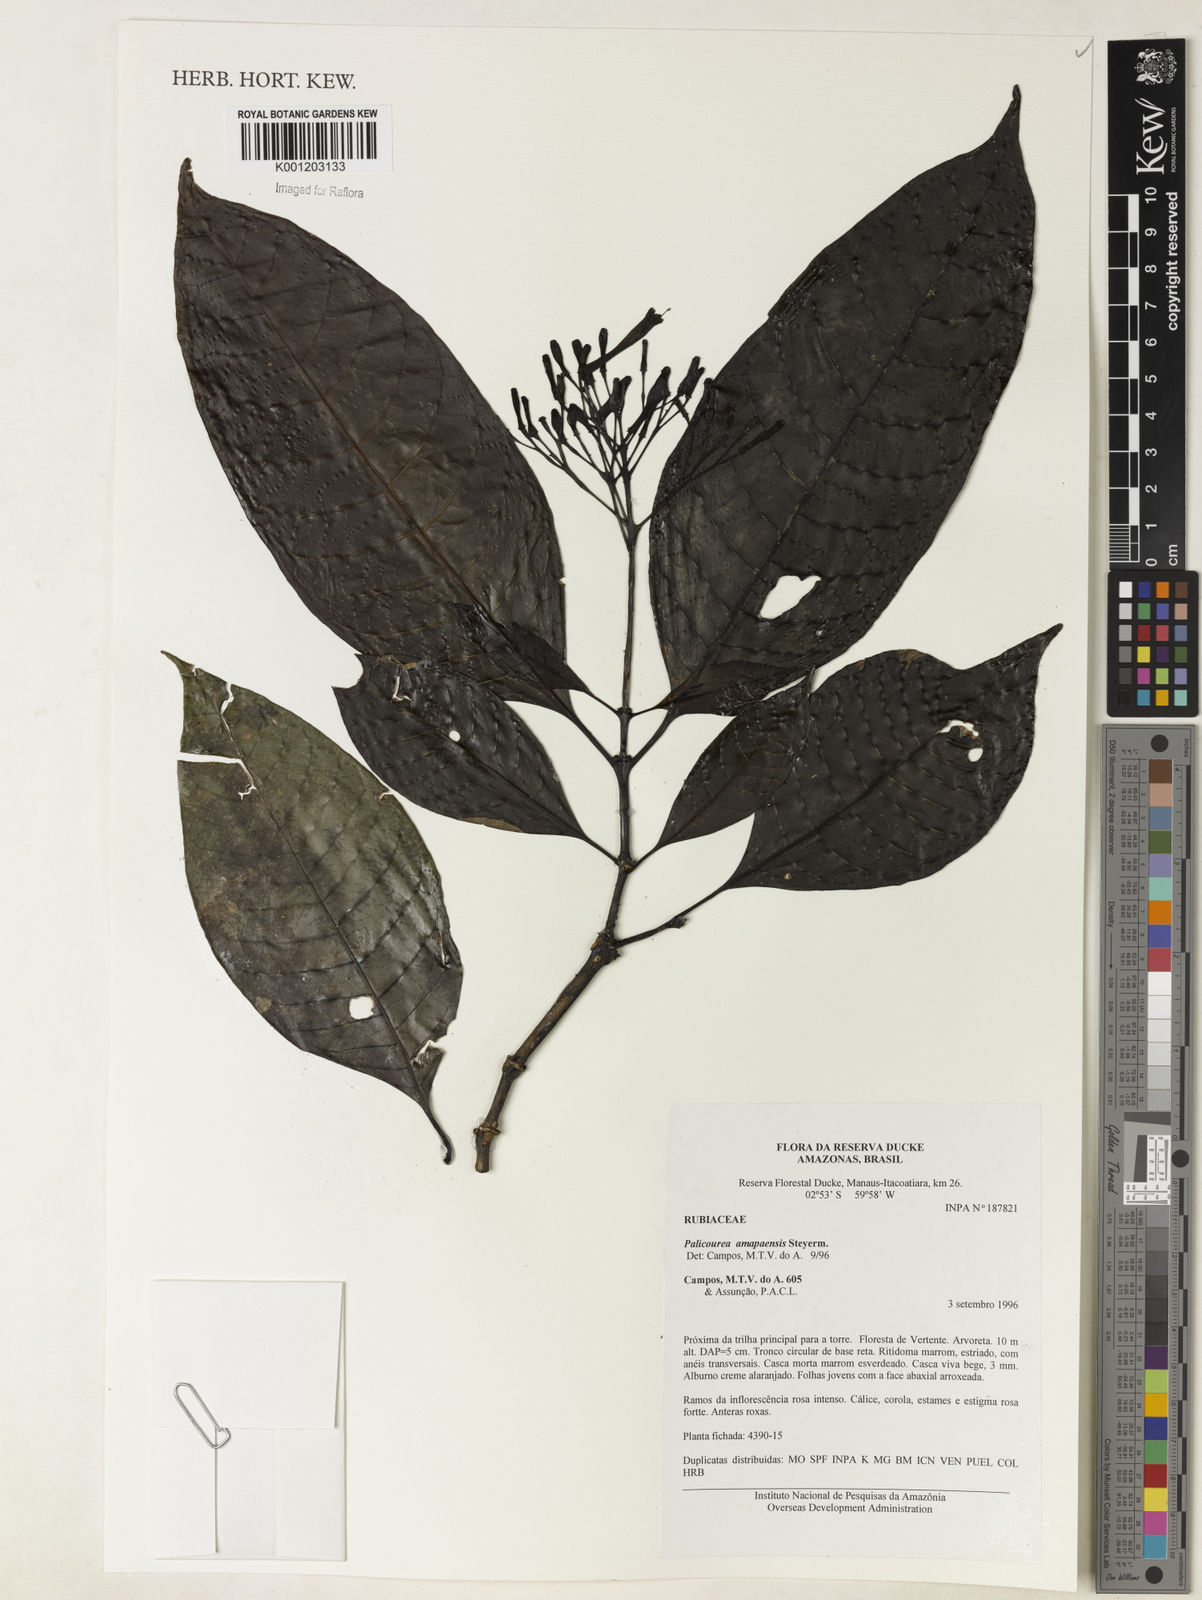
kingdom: Plantae
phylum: Tracheophyta
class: Magnoliopsida
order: Gentianales
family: Rubiaceae
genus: Palicourea
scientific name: Palicourea amapaensis
